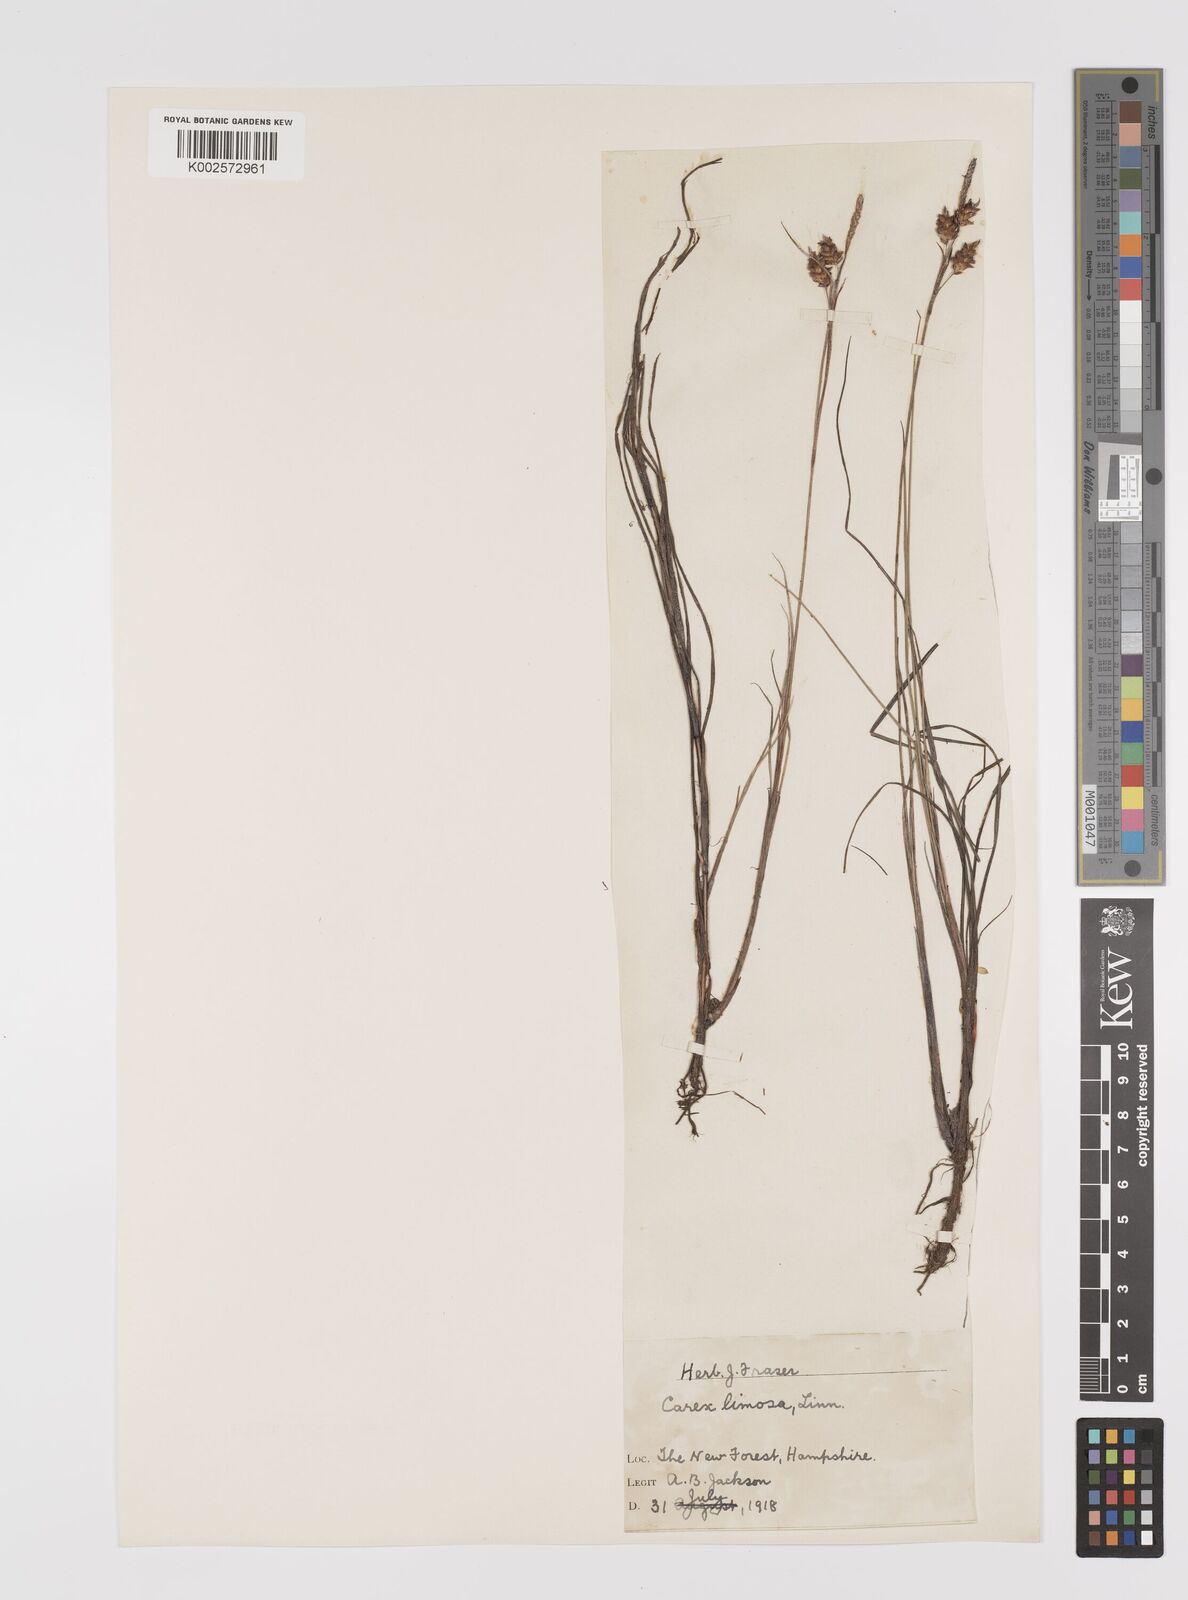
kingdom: Plantae
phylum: Tracheophyta
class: Liliopsida
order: Poales
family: Cyperaceae
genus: Carex
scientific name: Carex limosa
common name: Bog sedge
